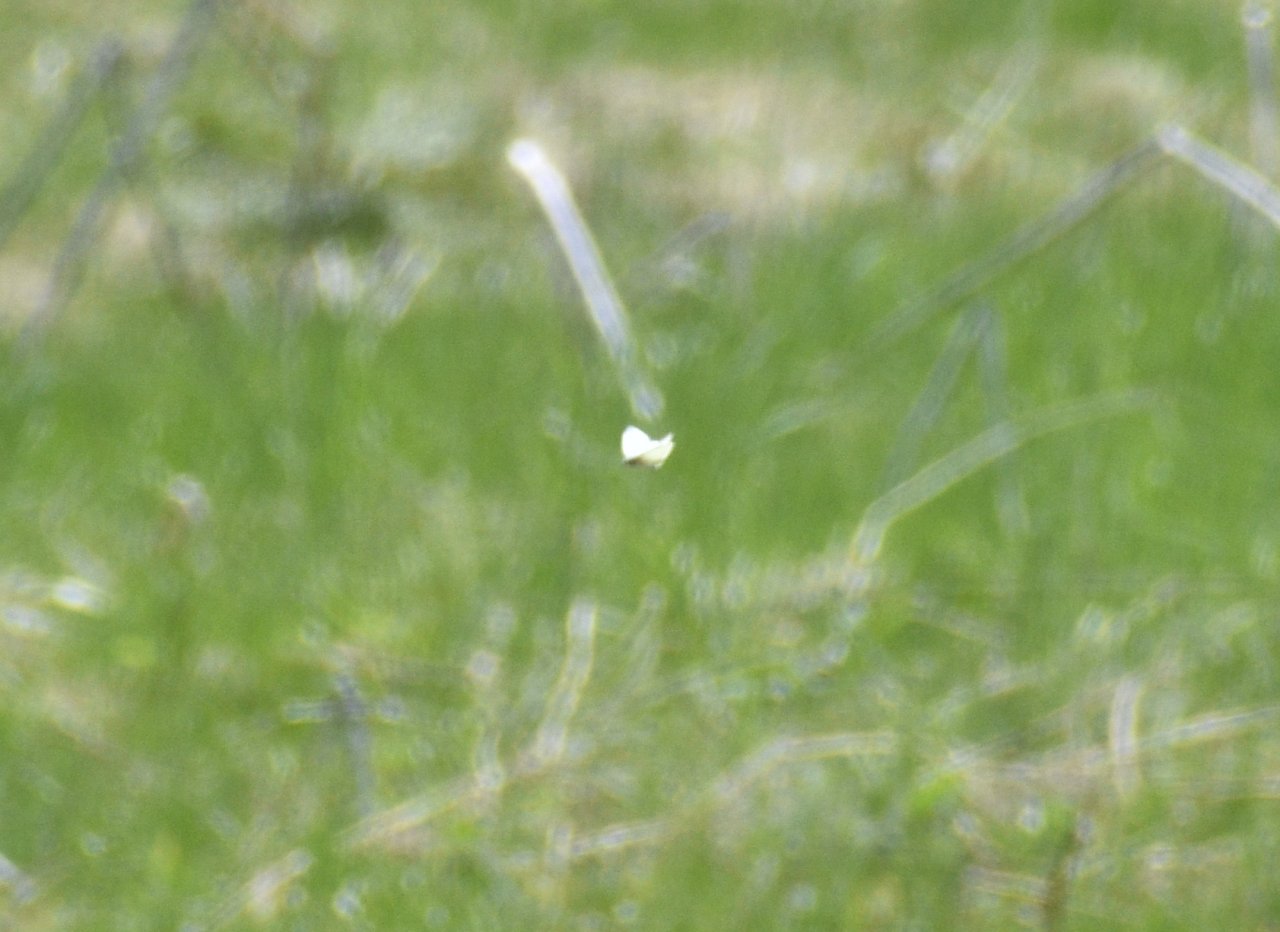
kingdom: Animalia
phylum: Arthropoda
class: Insecta
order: Lepidoptera
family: Pieridae
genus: Pieris
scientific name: Pieris rapae
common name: Cabbage White
